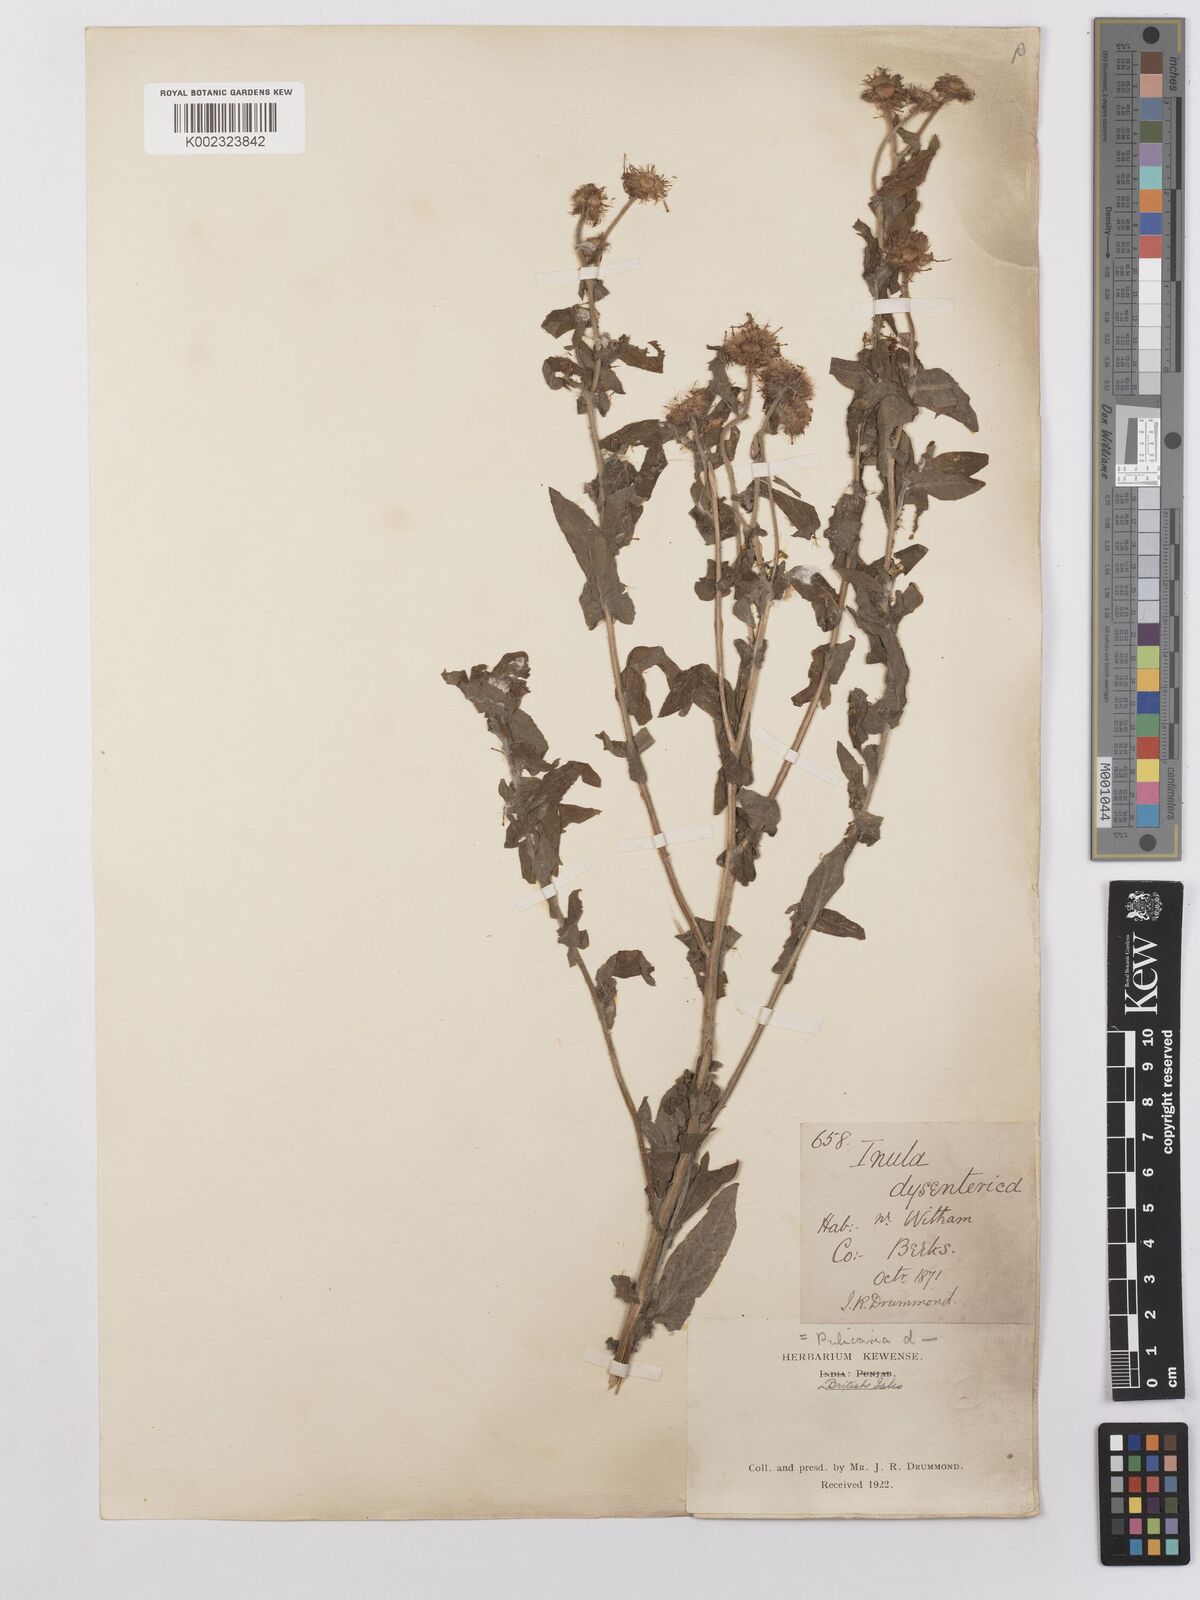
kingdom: Plantae
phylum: Tracheophyta
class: Magnoliopsida
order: Asterales
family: Asteraceae
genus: Pulicaria
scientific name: Pulicaria dysenterica
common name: Common fleabane
